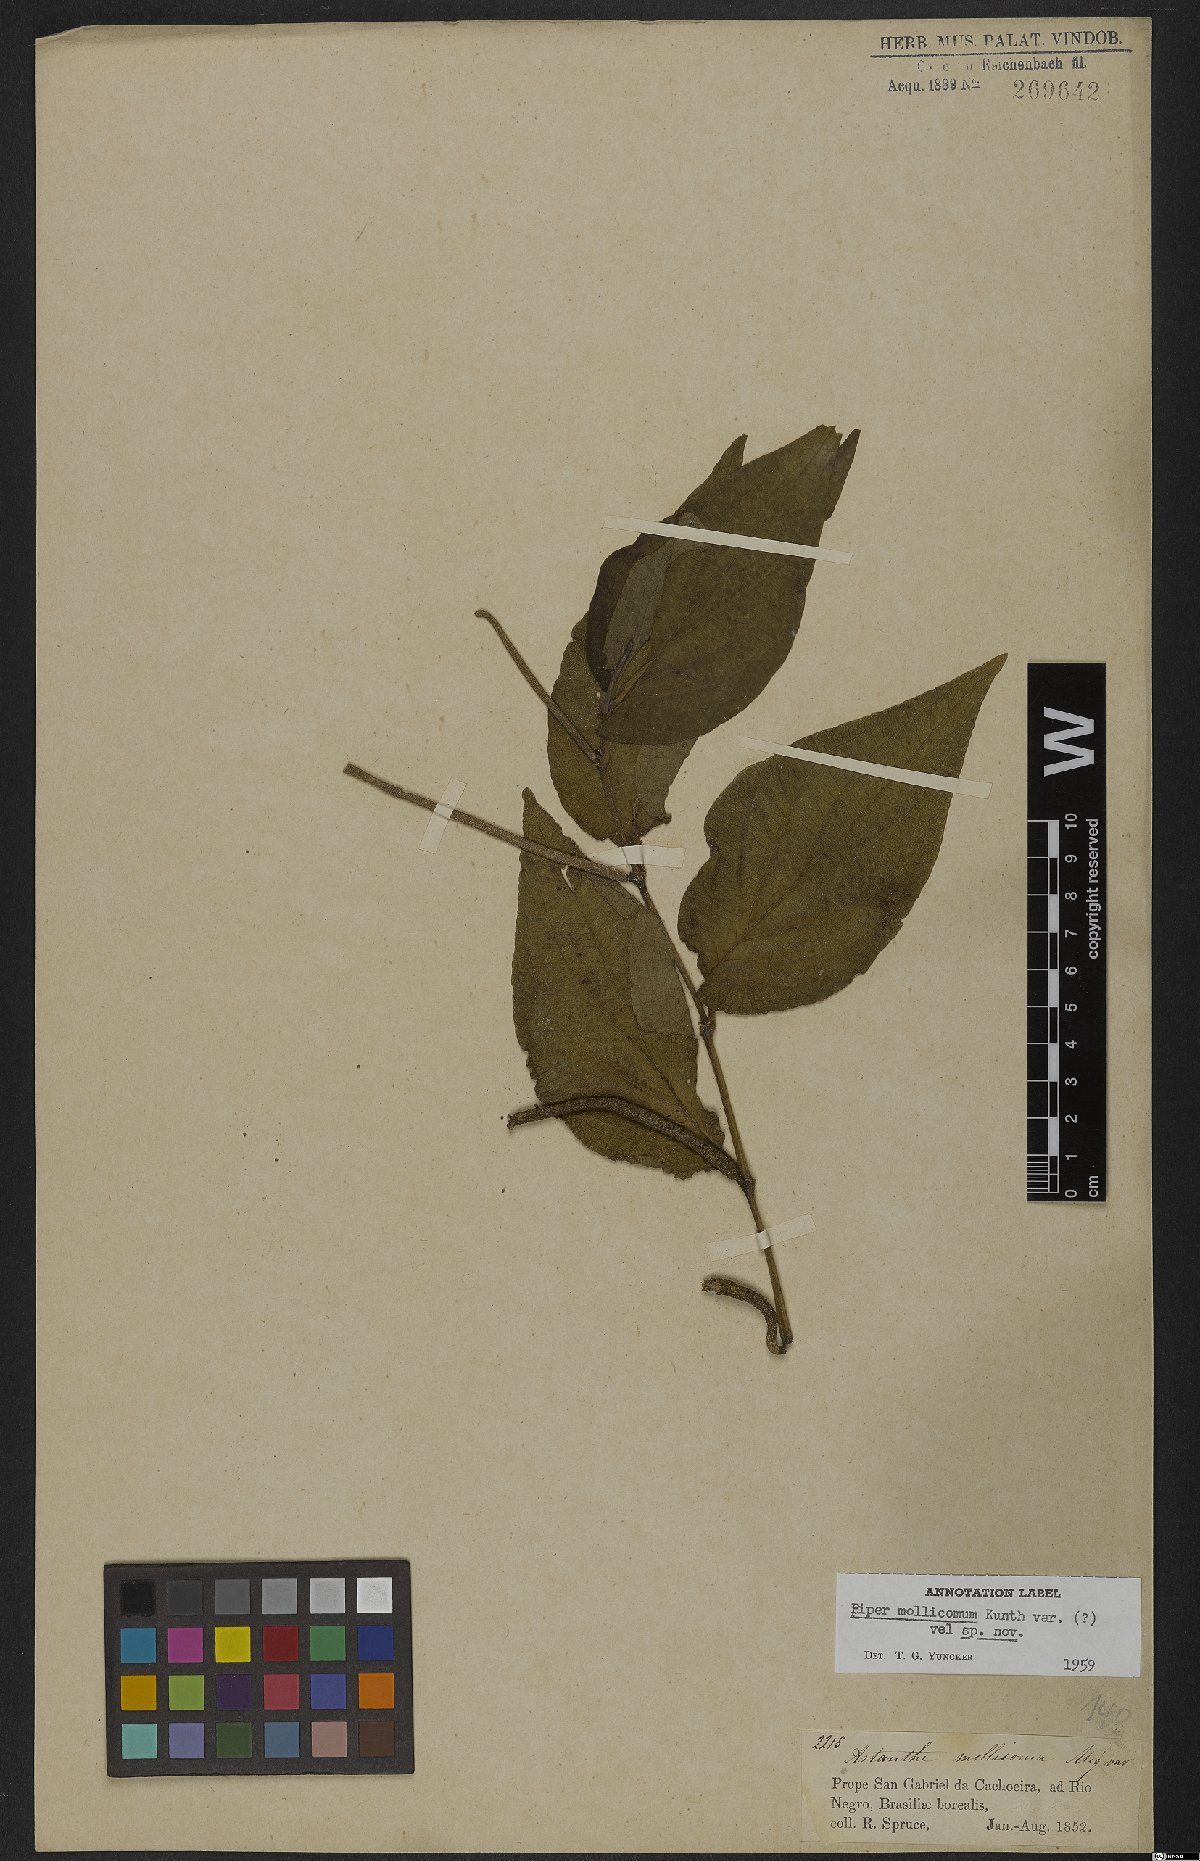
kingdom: Plantae
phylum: Tracheophyta
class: Magnoliopsida
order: Piperales
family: Piperaceae
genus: Piper
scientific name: Piper mollicomum
